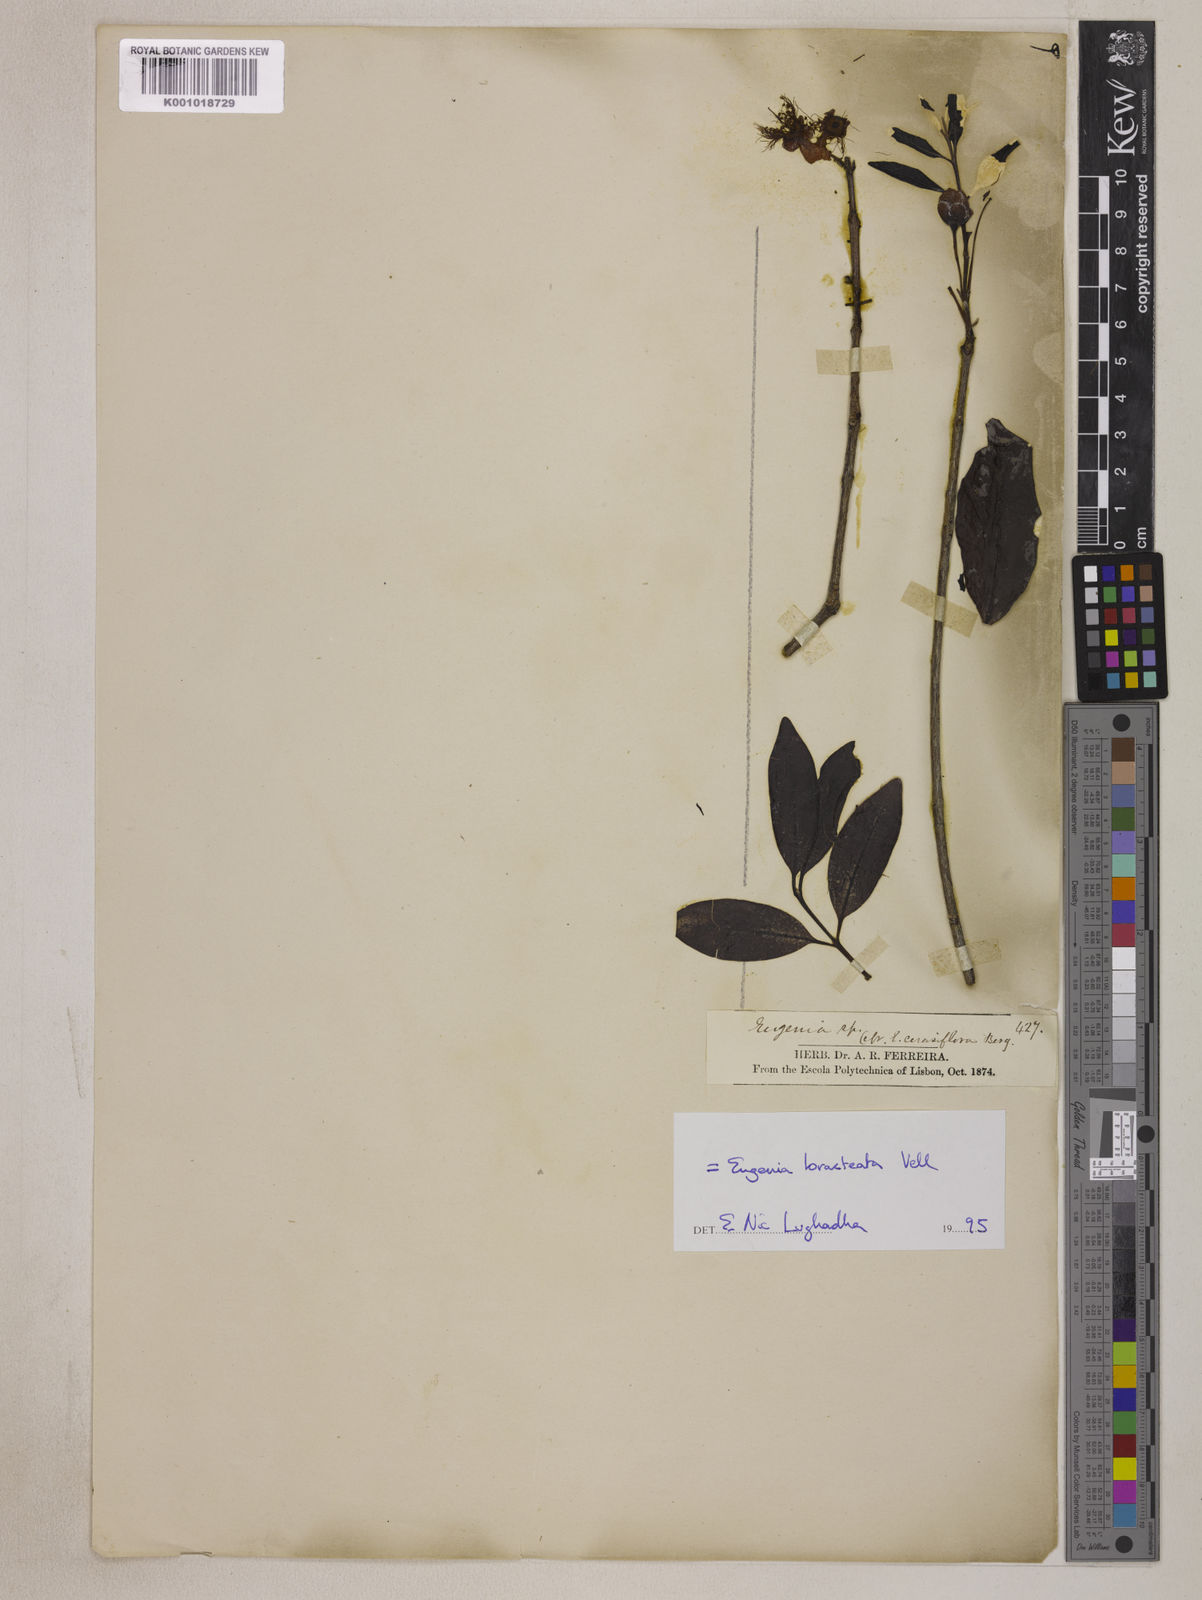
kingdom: Plantae
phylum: Tracheophyta
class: Magnoliopsida
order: Myrtales
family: Myrtaceae
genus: Eugenia
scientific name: Eugenia
